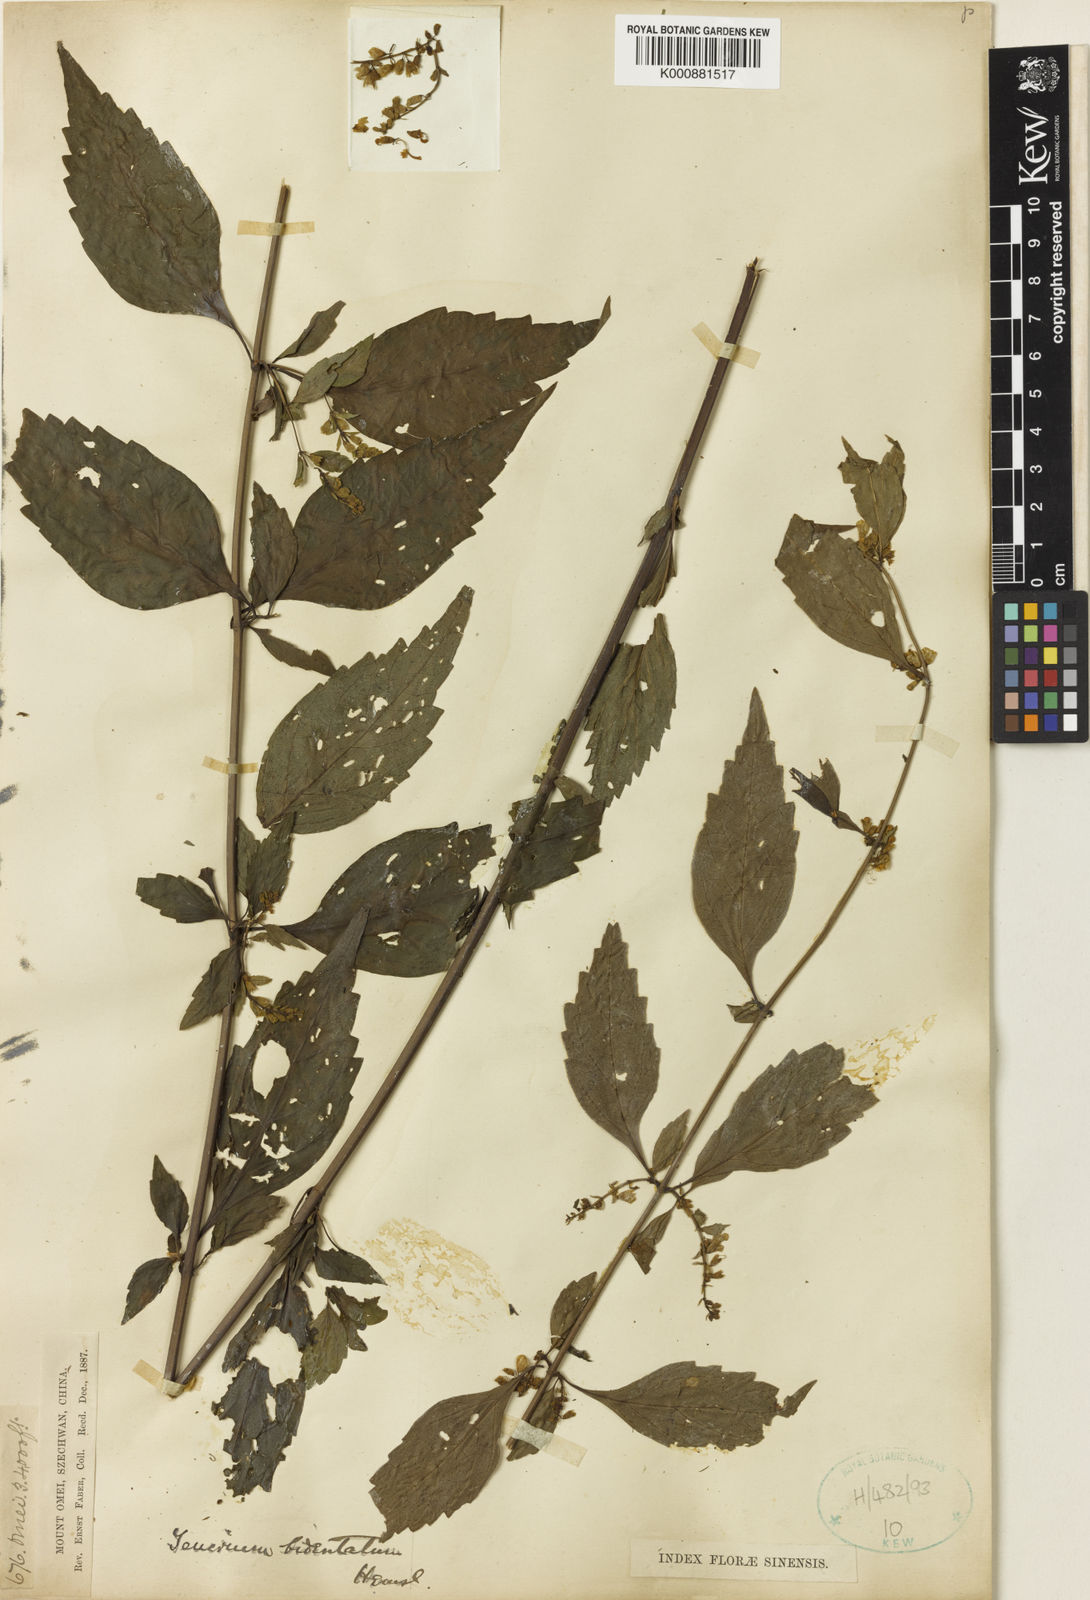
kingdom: Plantae
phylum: Tracheophyta
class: Magnoliopsida
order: Lamiales
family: Lamiaceae
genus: Teucrium
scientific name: Teucrium bidentatum
